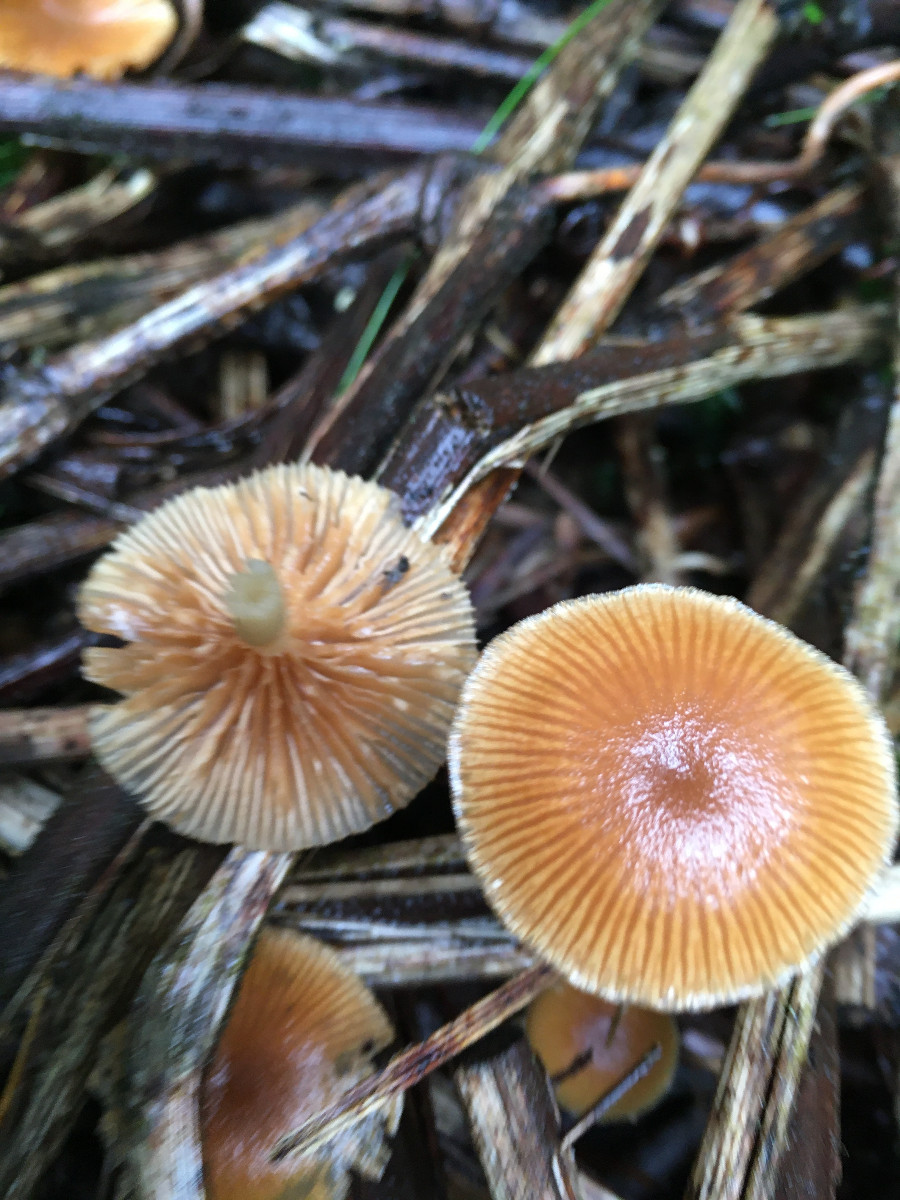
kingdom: Fungi
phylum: Basidiomycota
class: Agaricomycetes
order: Agaricales
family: Hymenogastraceae
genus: Galerina
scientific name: Galerina
